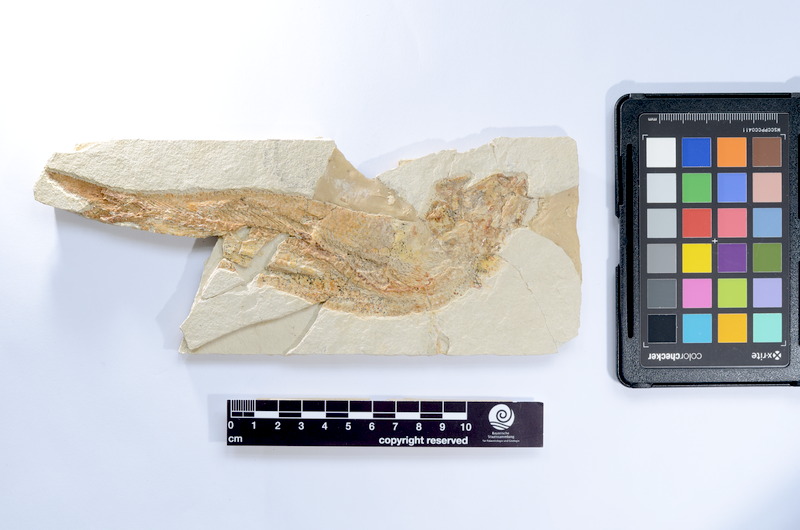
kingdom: Animalia
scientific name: Animalia
